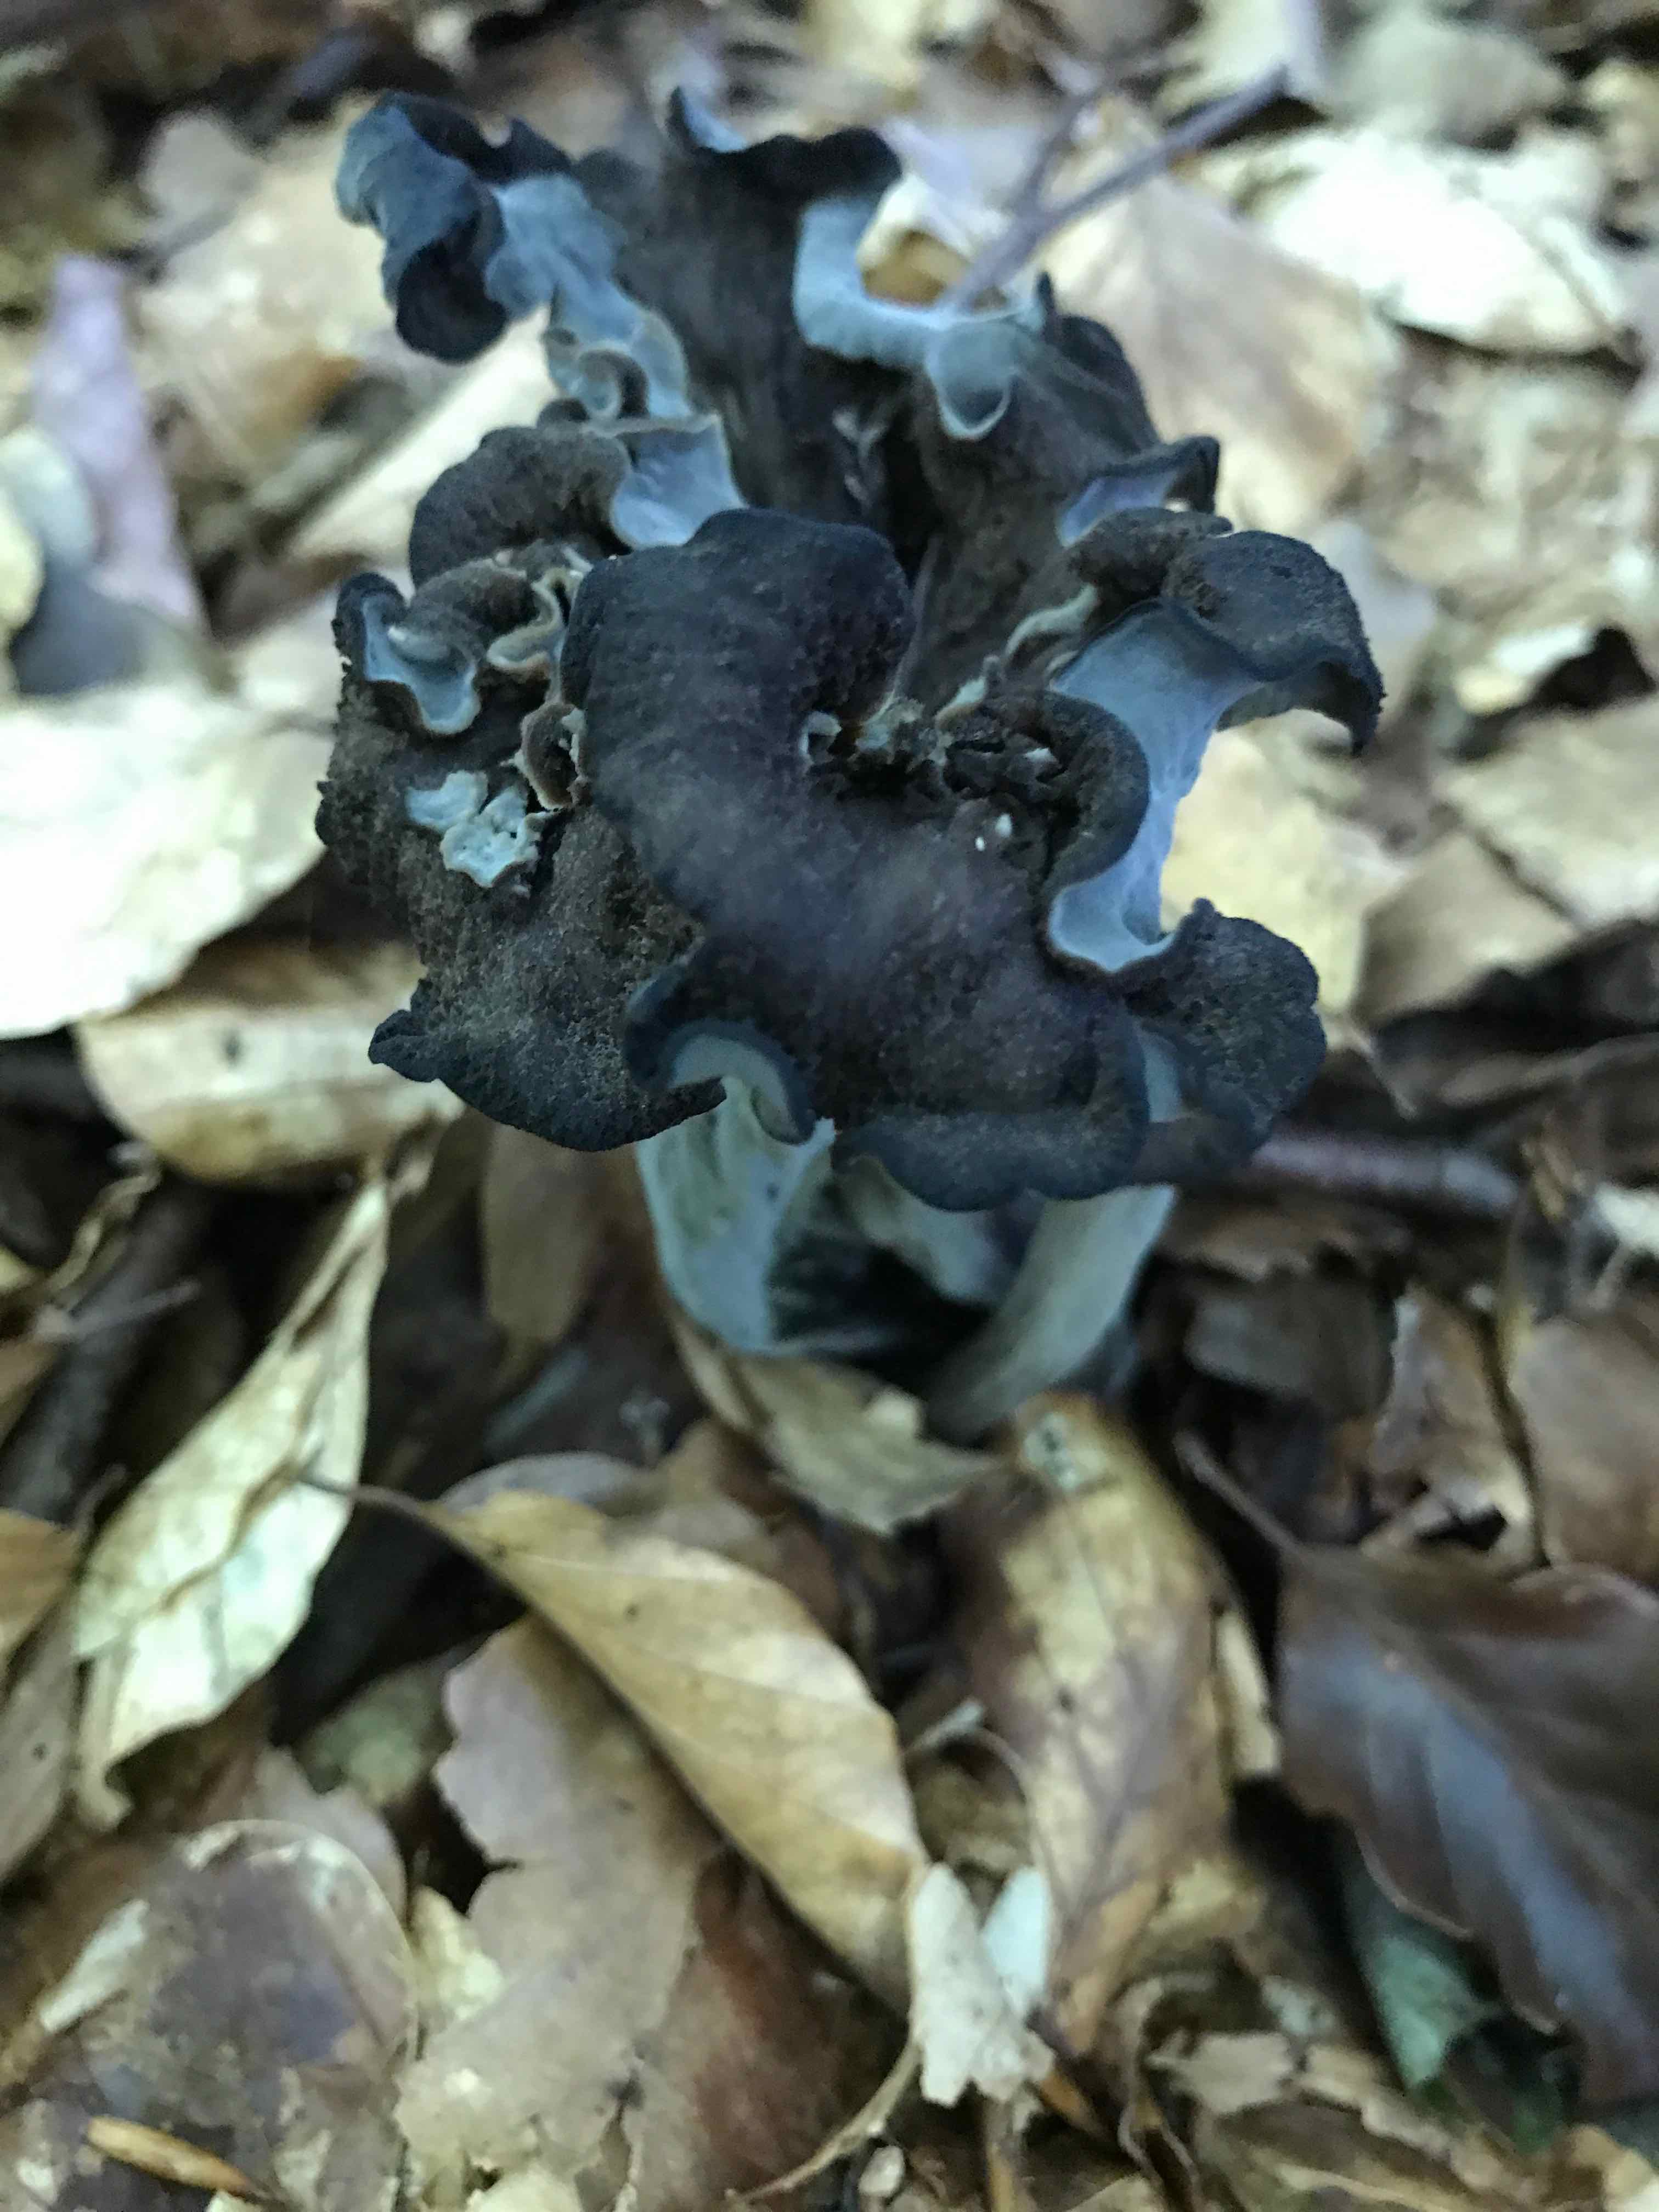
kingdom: Fungi
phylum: Basidiomycota
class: Agaricomycetes
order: Cantharellales
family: Hydnaceae
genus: Craterellus
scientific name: Craterellus cornucopioides
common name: trompetsvamp
